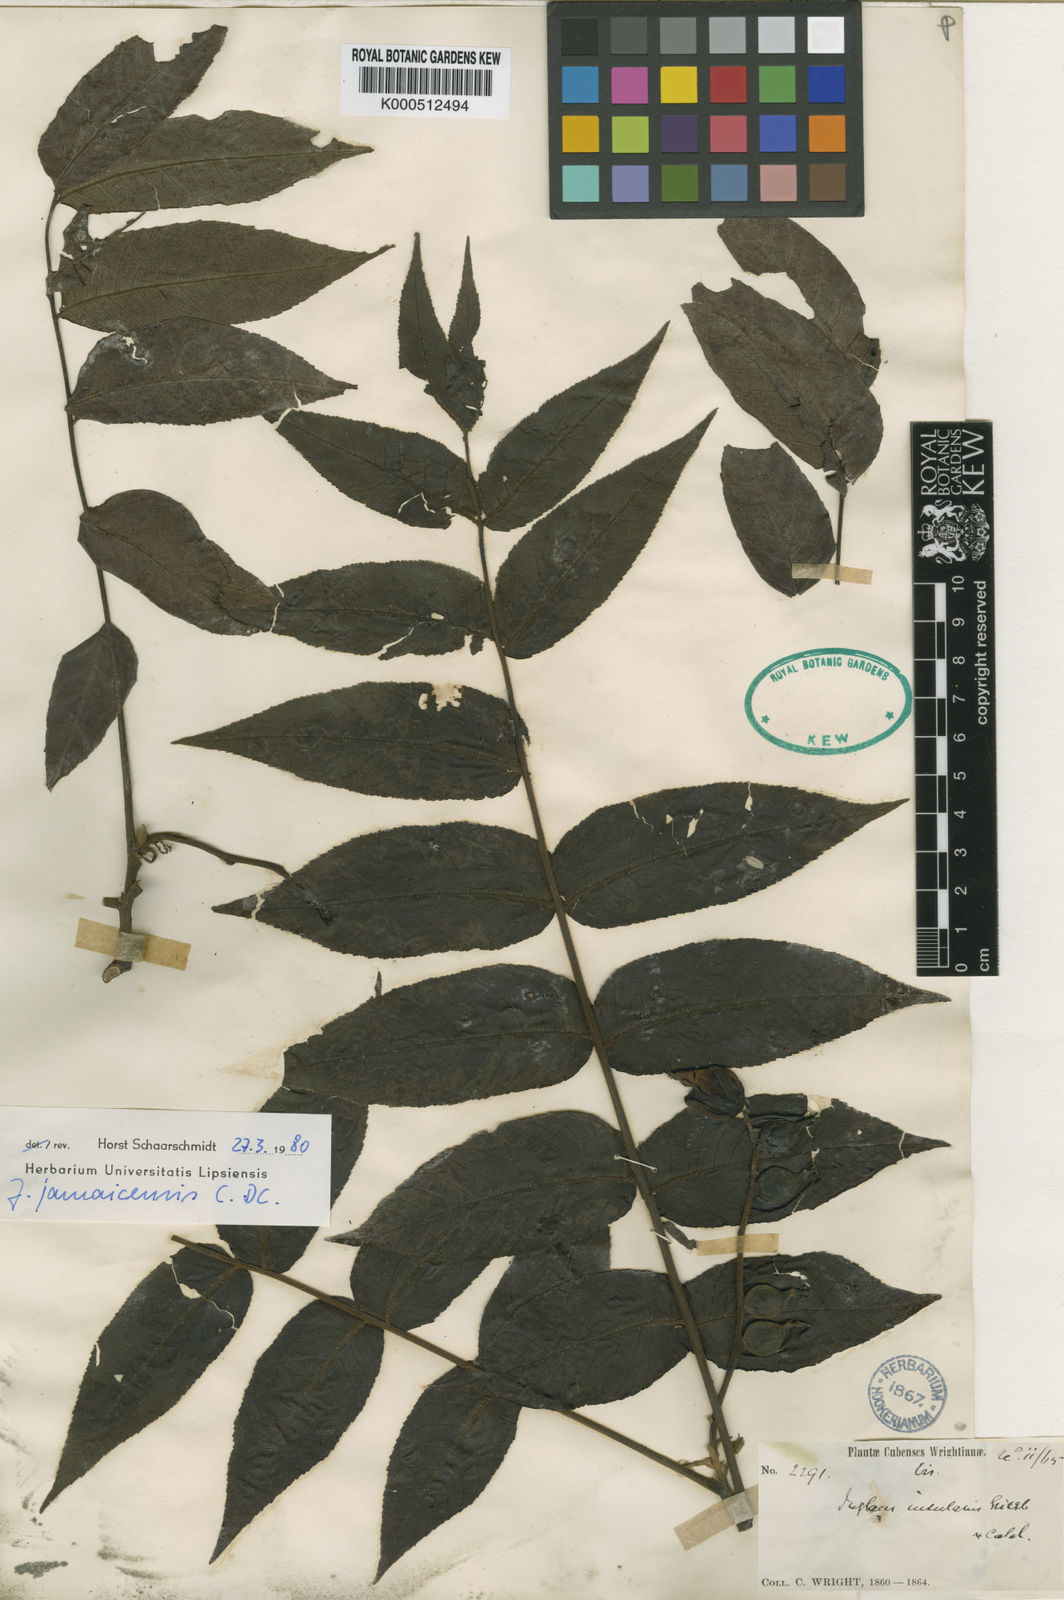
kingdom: Plantae
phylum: Tracheophyta
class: Magnoliopsida
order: Fagales
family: Juglandaceae
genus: Juglans
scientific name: Juglans jamaicensis
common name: West indian walnut
